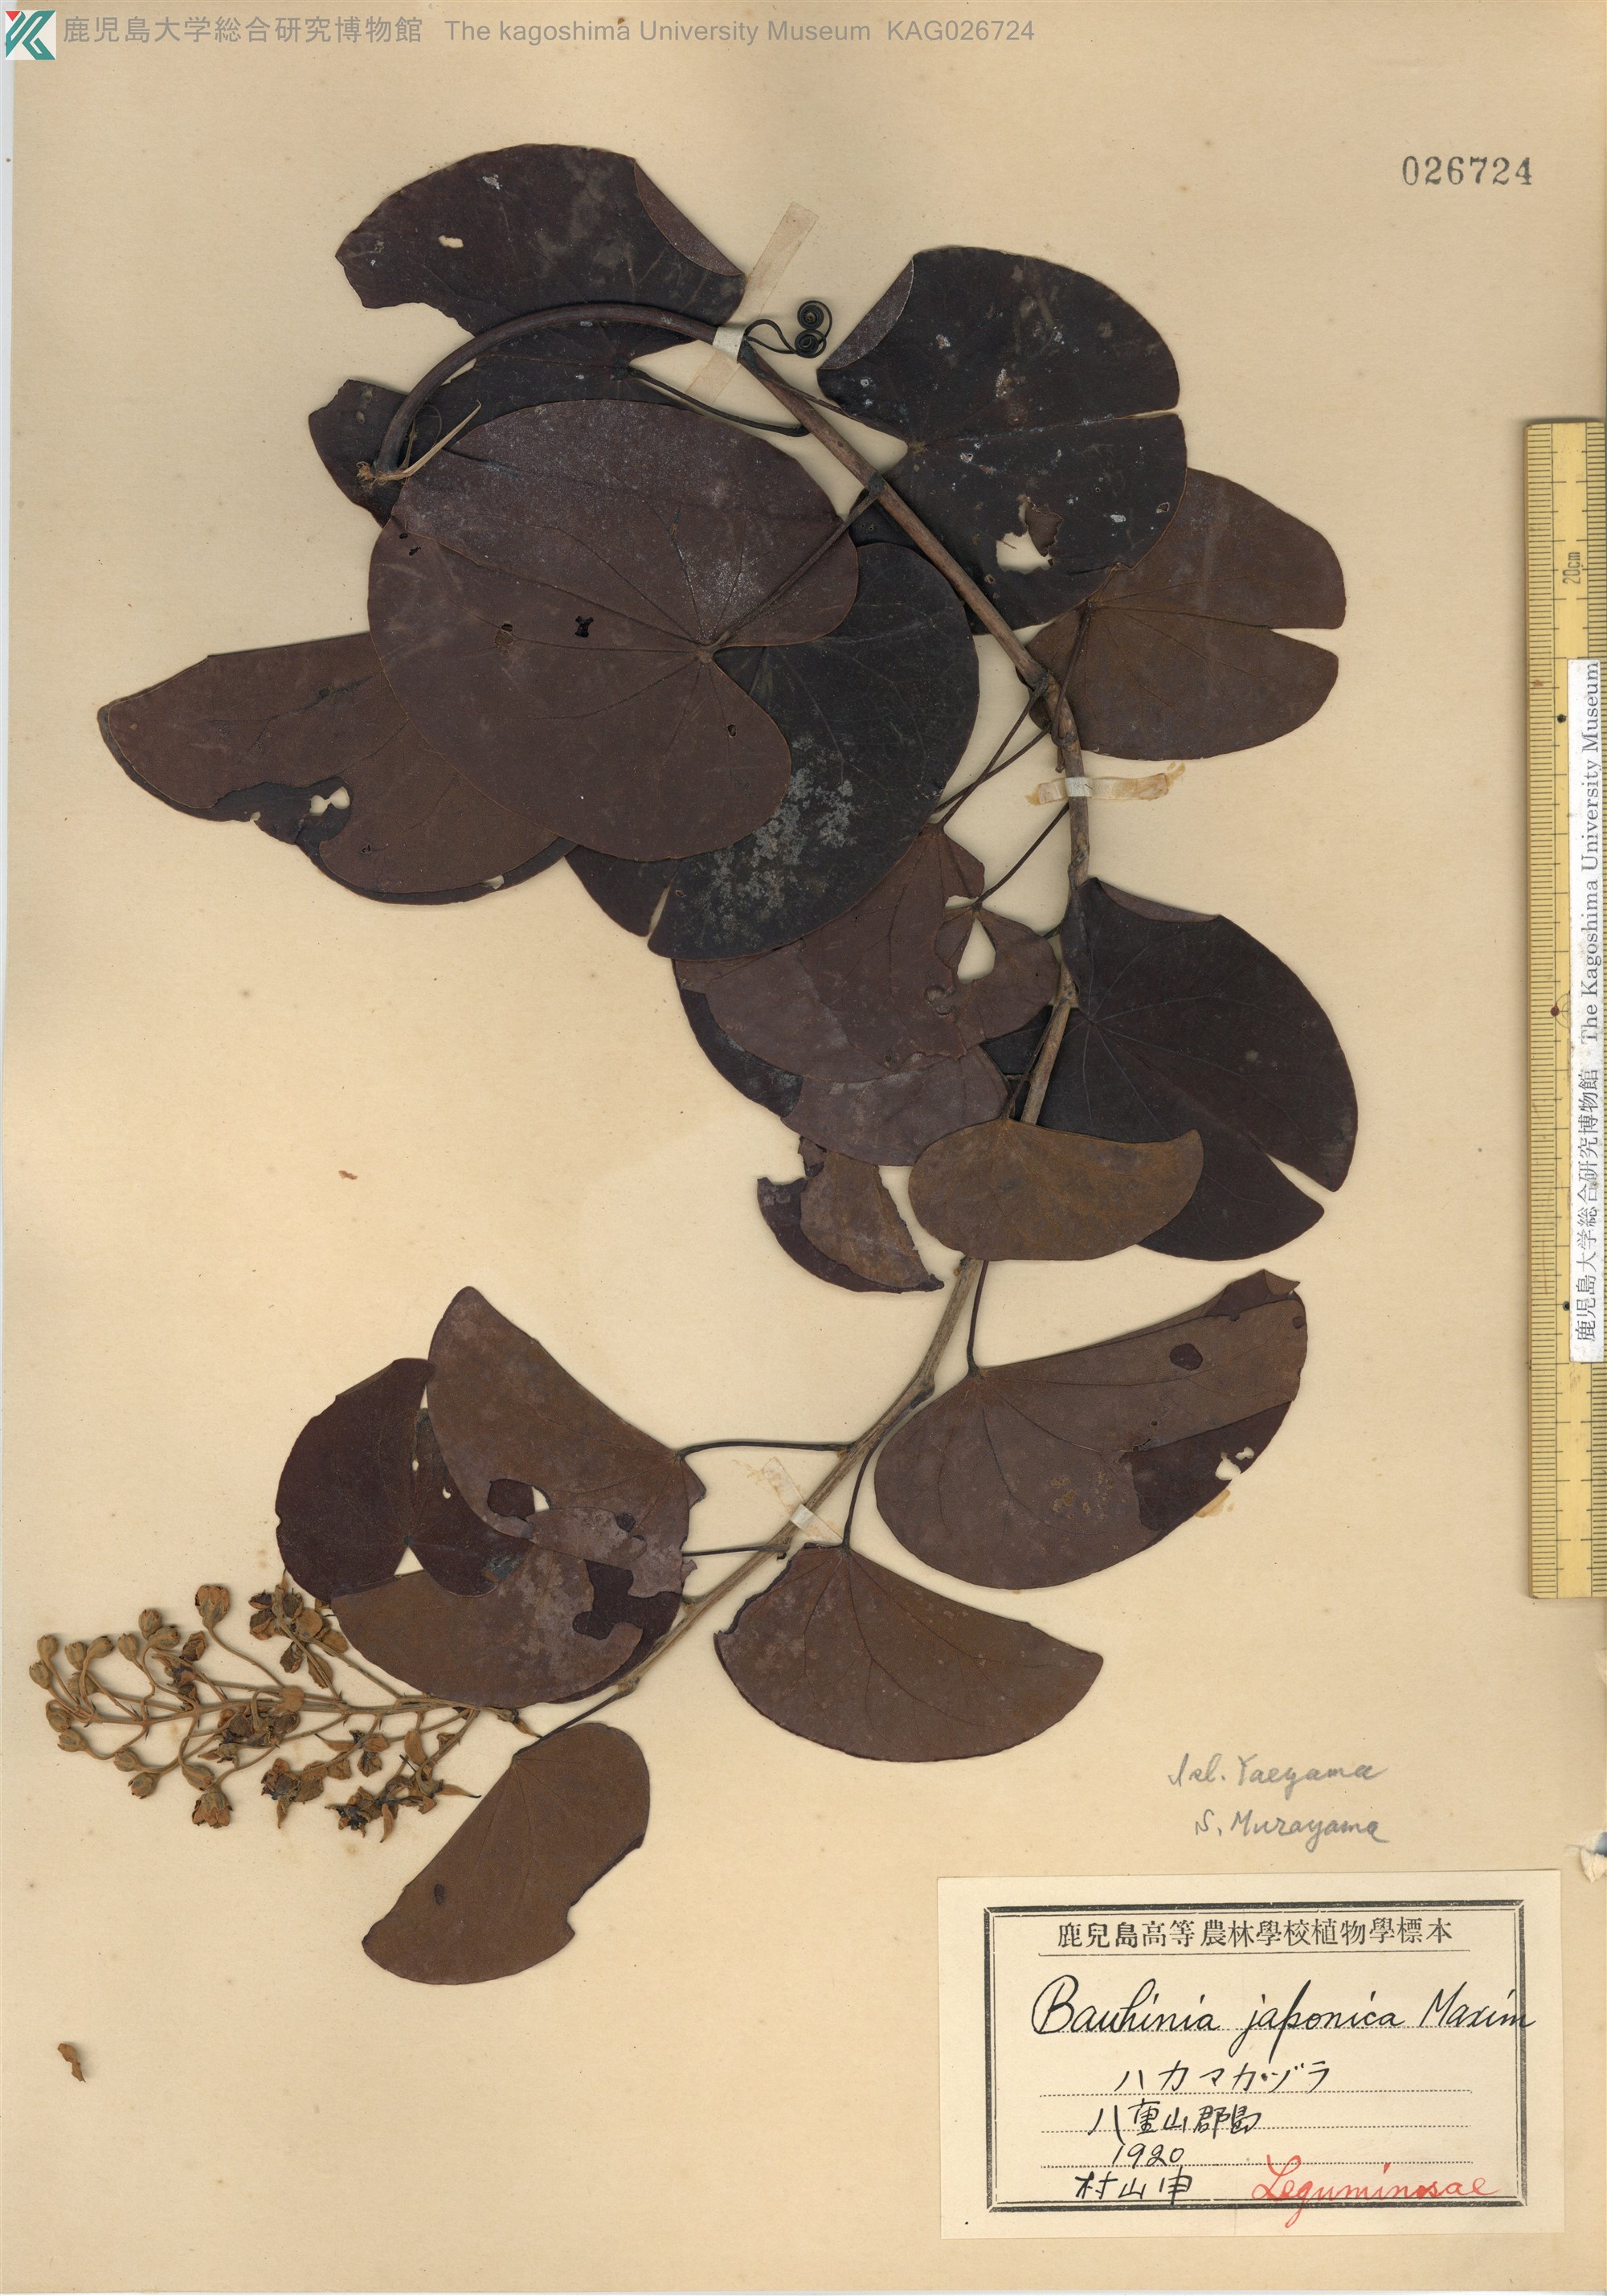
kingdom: Plantae
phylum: Tracheophyta
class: Magnoliopsida
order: Fabales
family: Fabaceae
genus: Phanera
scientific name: Phanera japonica
